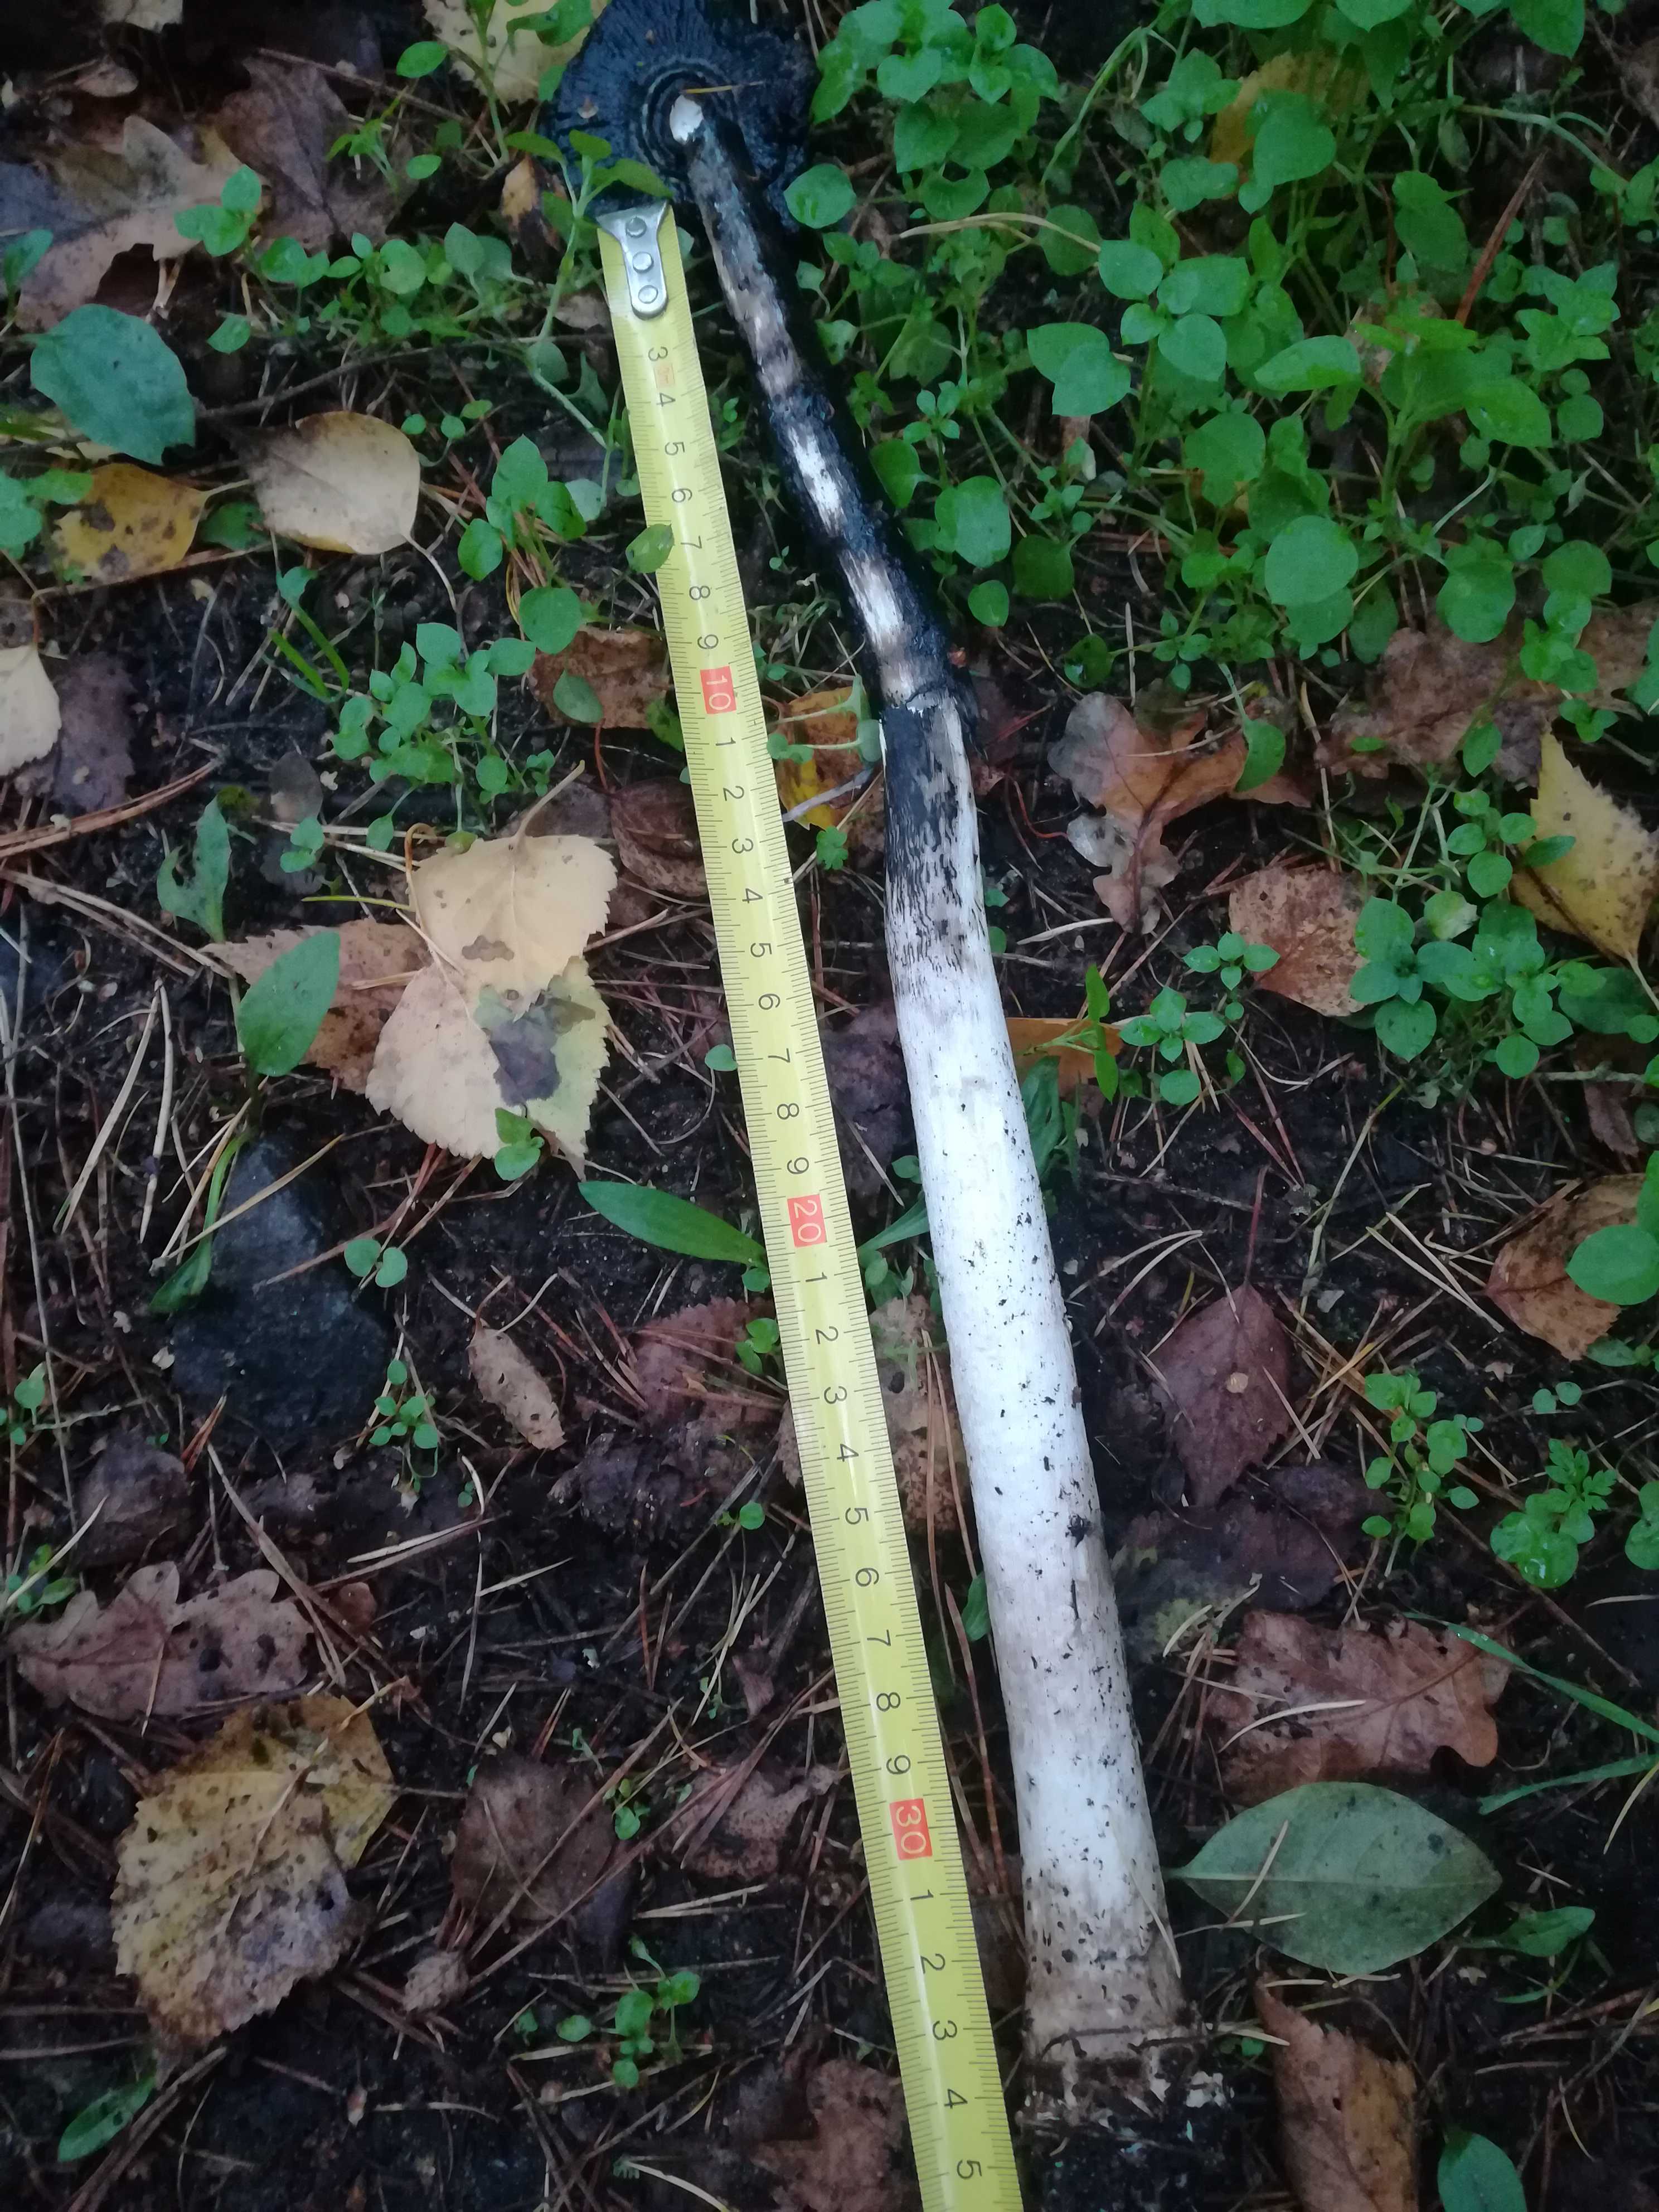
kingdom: Fungi
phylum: Basidiomycota
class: Agaricomycetes
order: Agaricales
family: Agaricaceae
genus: Coprinus
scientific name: Coprinus comatus
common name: stor parykhat
